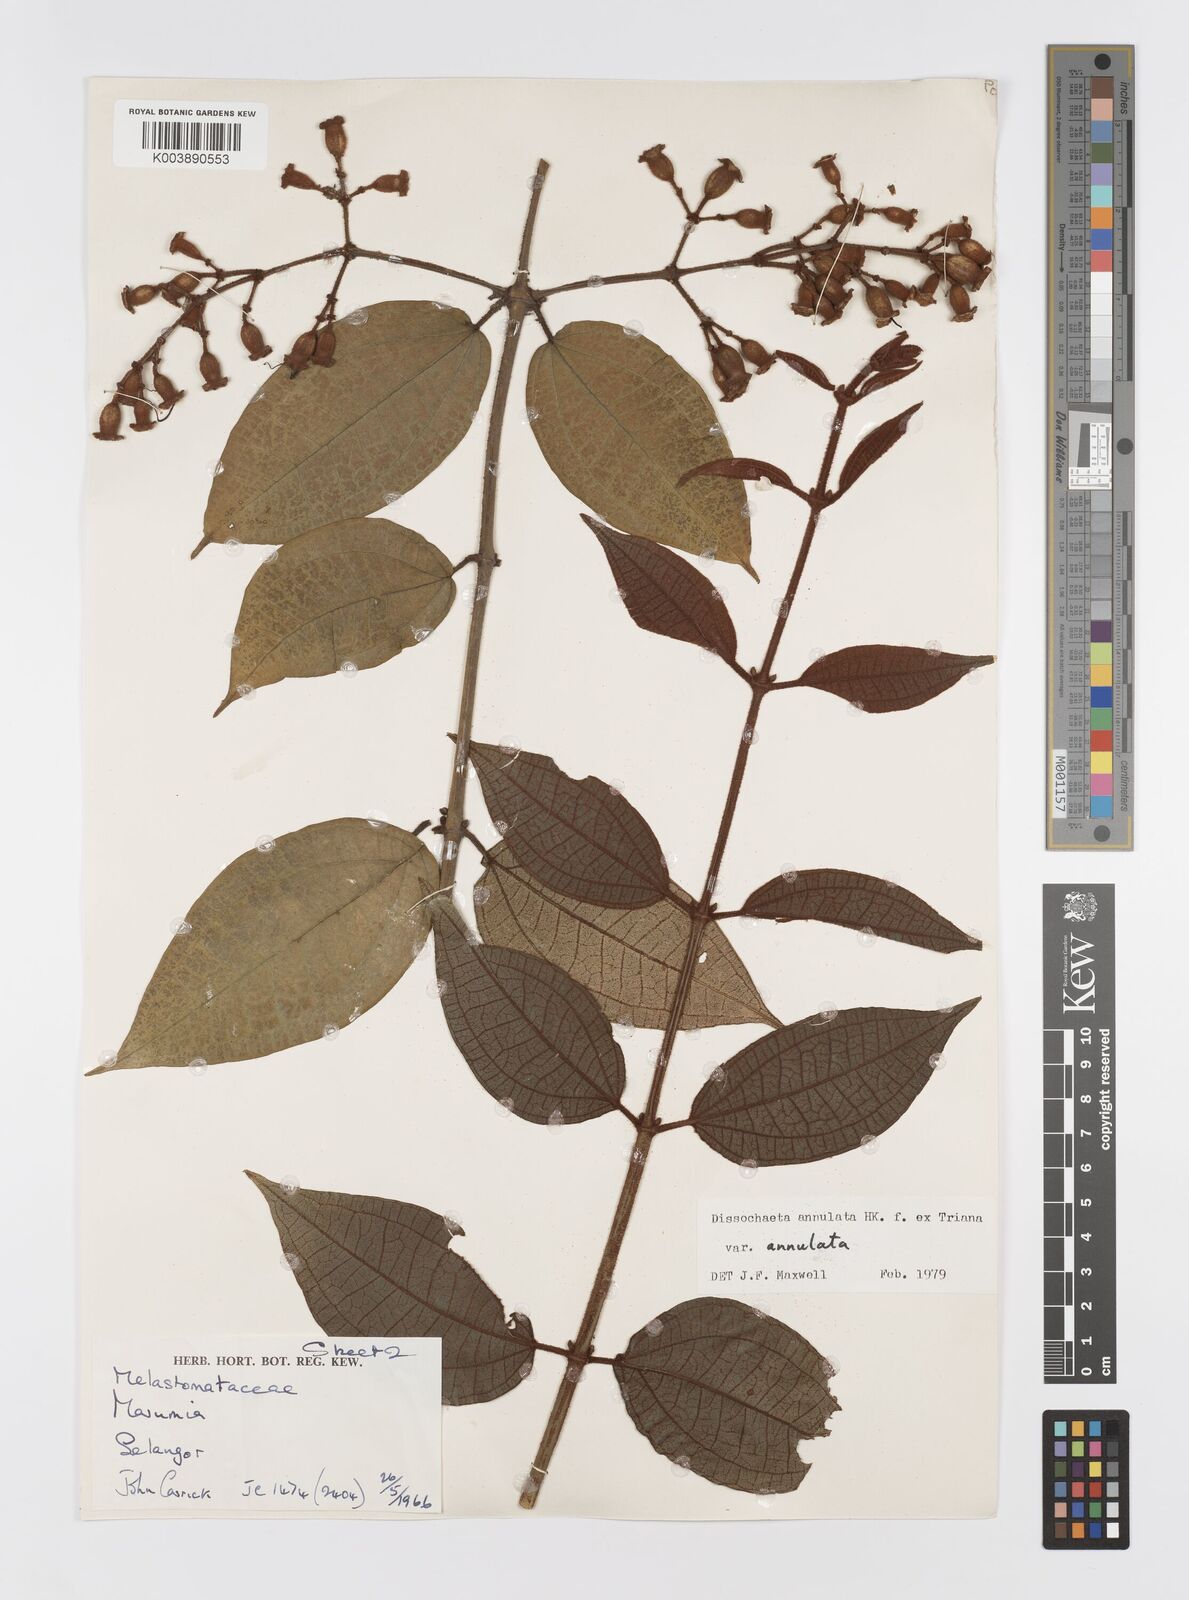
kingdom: Plantae
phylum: Tracheophyta
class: Magnoliopsida
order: Myrtales
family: Melastomataceae
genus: Dissochaeta
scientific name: Dissochaeta annulata
